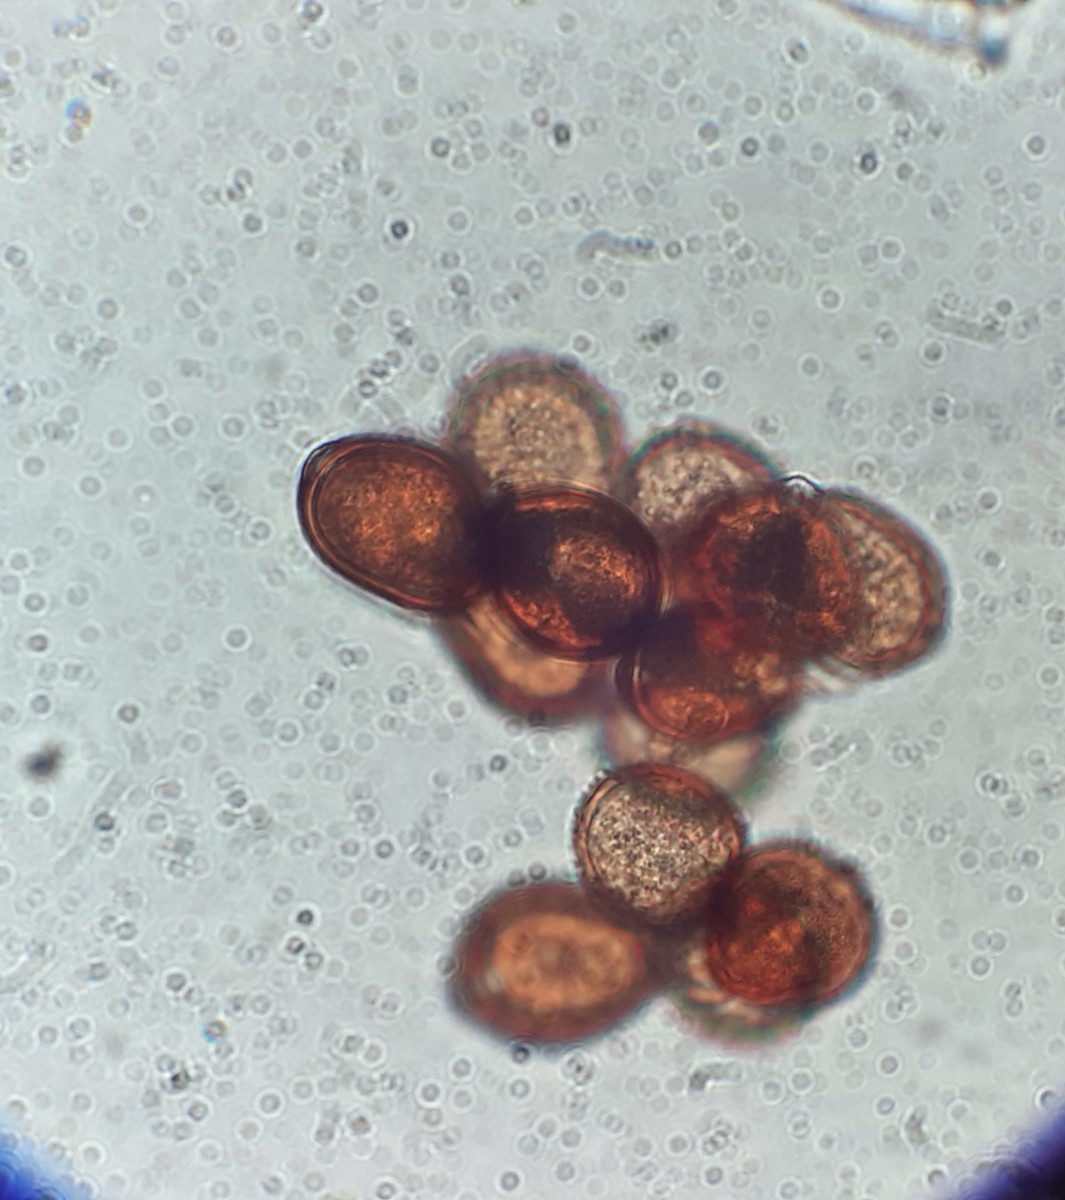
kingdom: Fungi
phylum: Basidiomycota
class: Pucciniomycetes
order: Pucciniales
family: Pucciniaceae
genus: Uromyces
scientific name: Uromyces rumicis
